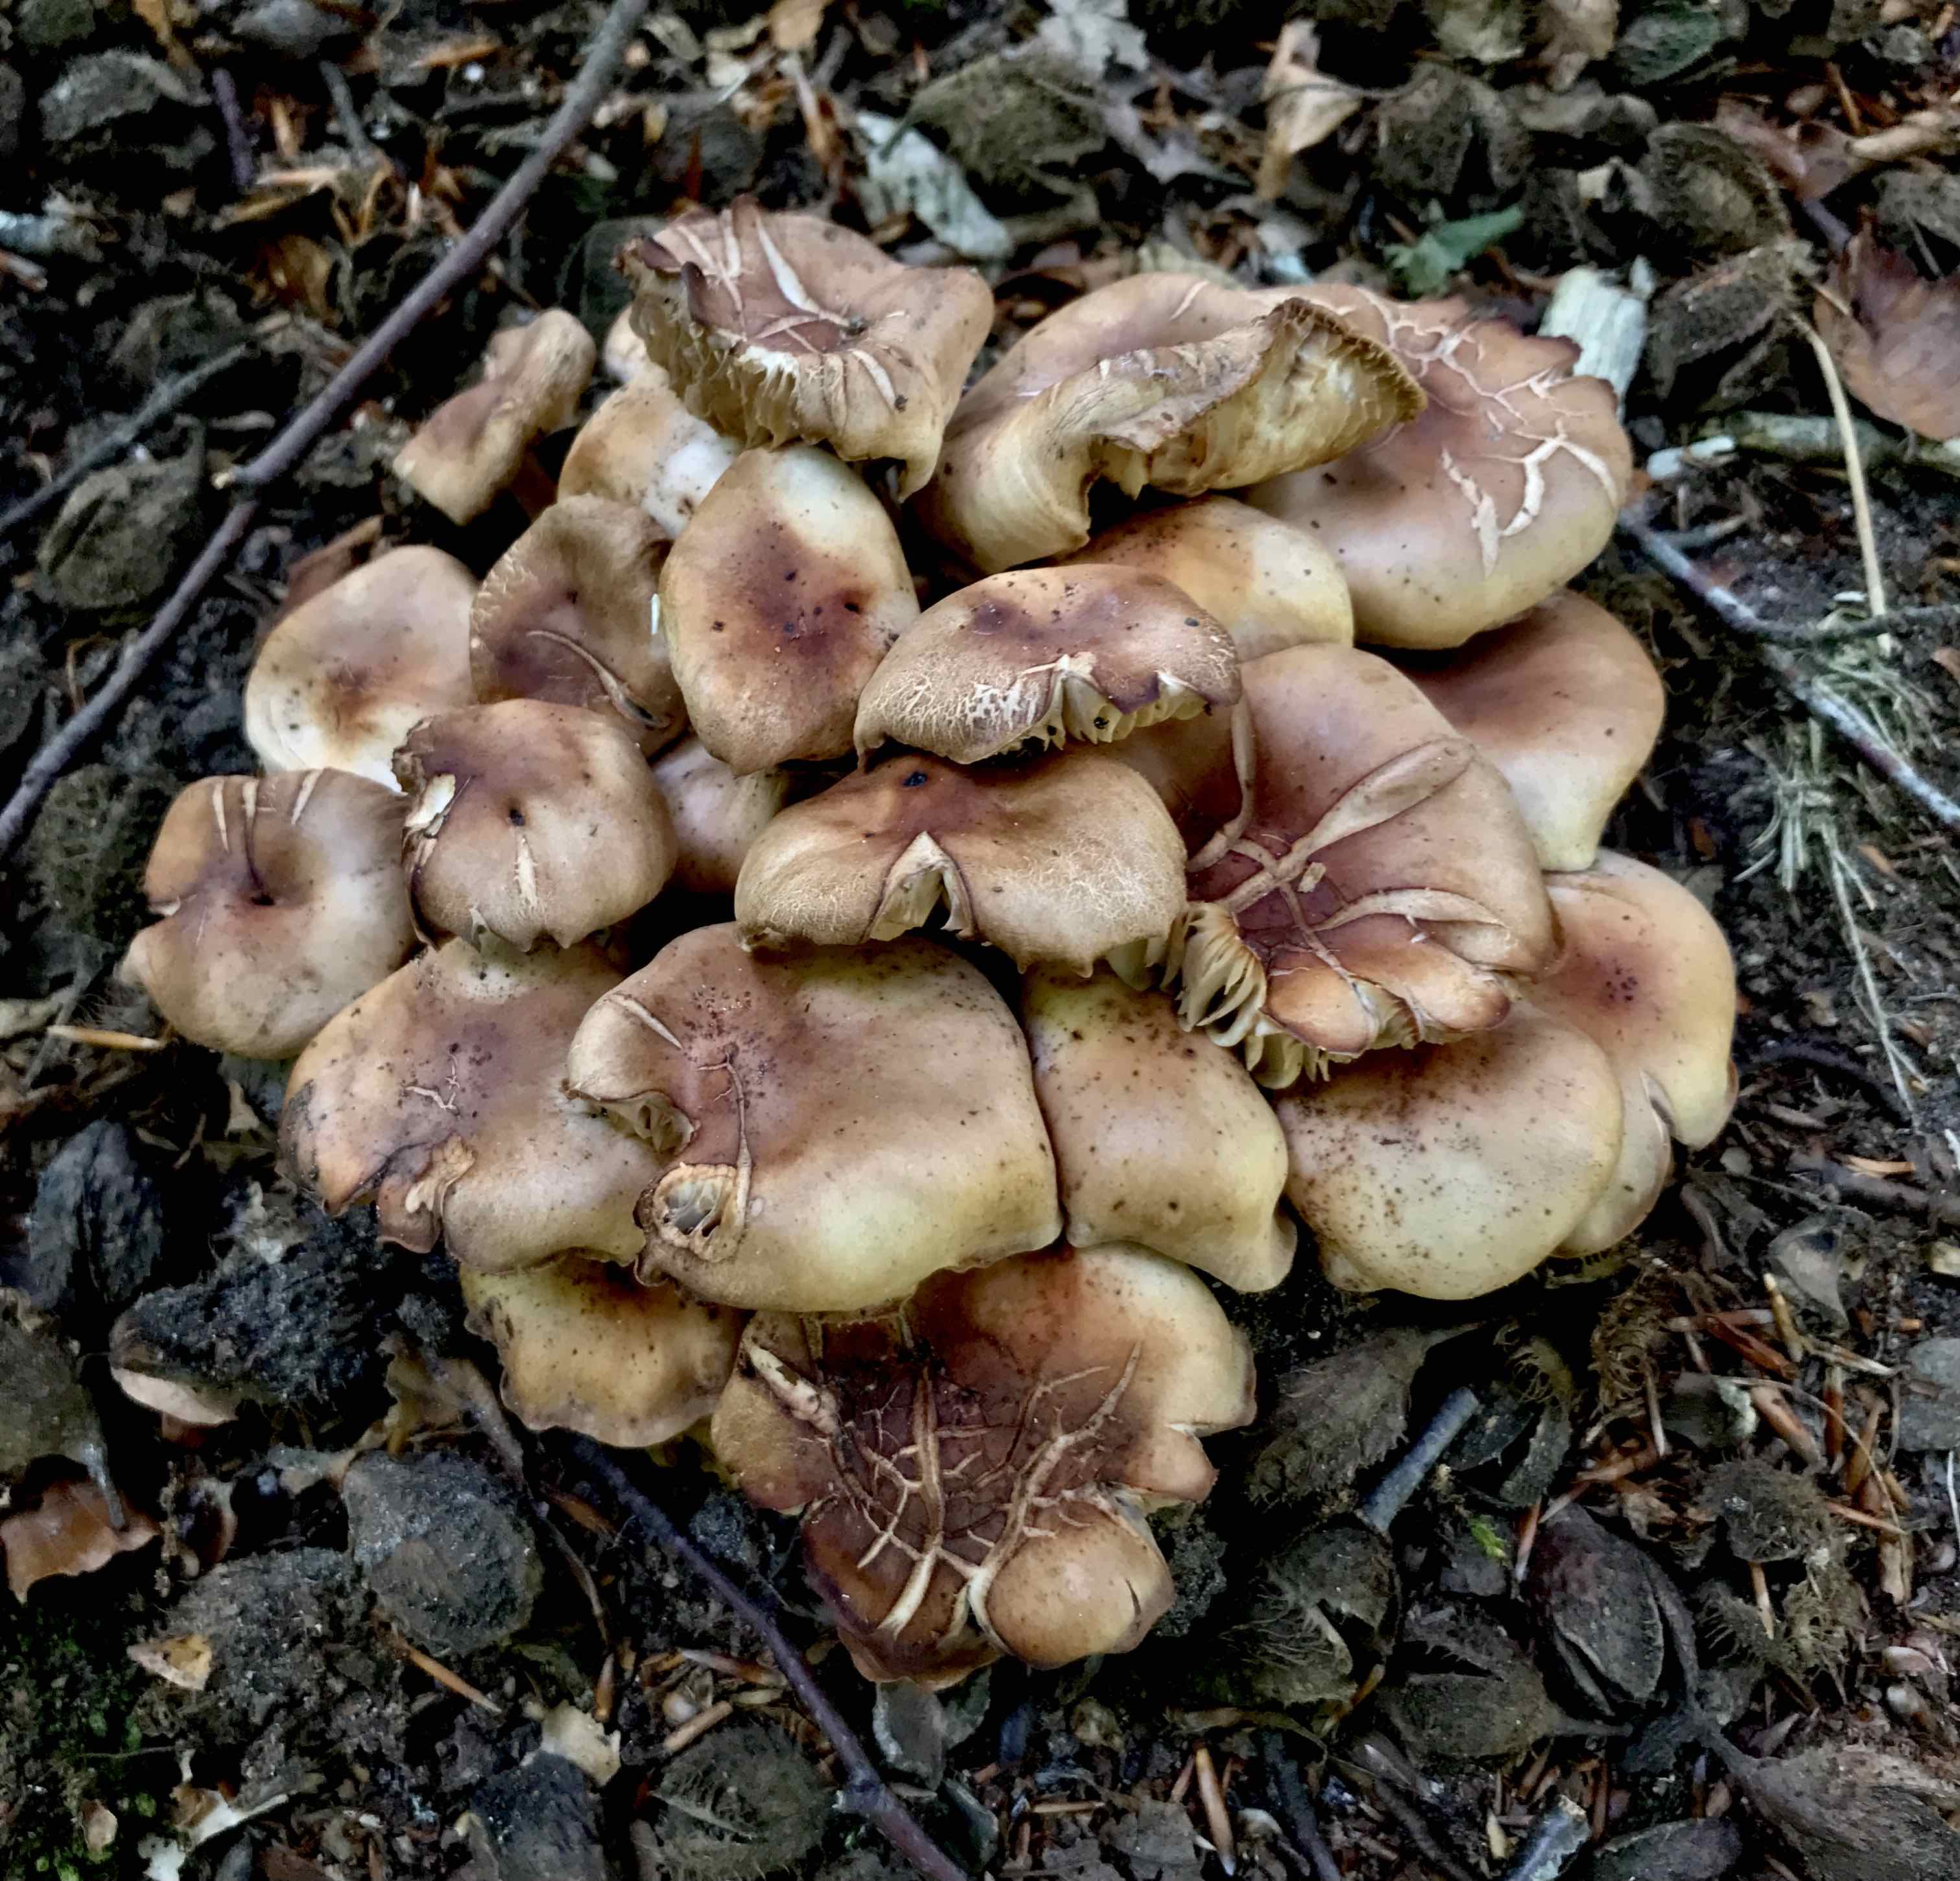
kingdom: Fungi
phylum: Basidiomycota
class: Agaricomycetes
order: Agaricales
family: Omphalotaceae
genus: Gymnopus
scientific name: Gymnopus fusipes
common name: tenstokket fladhat
